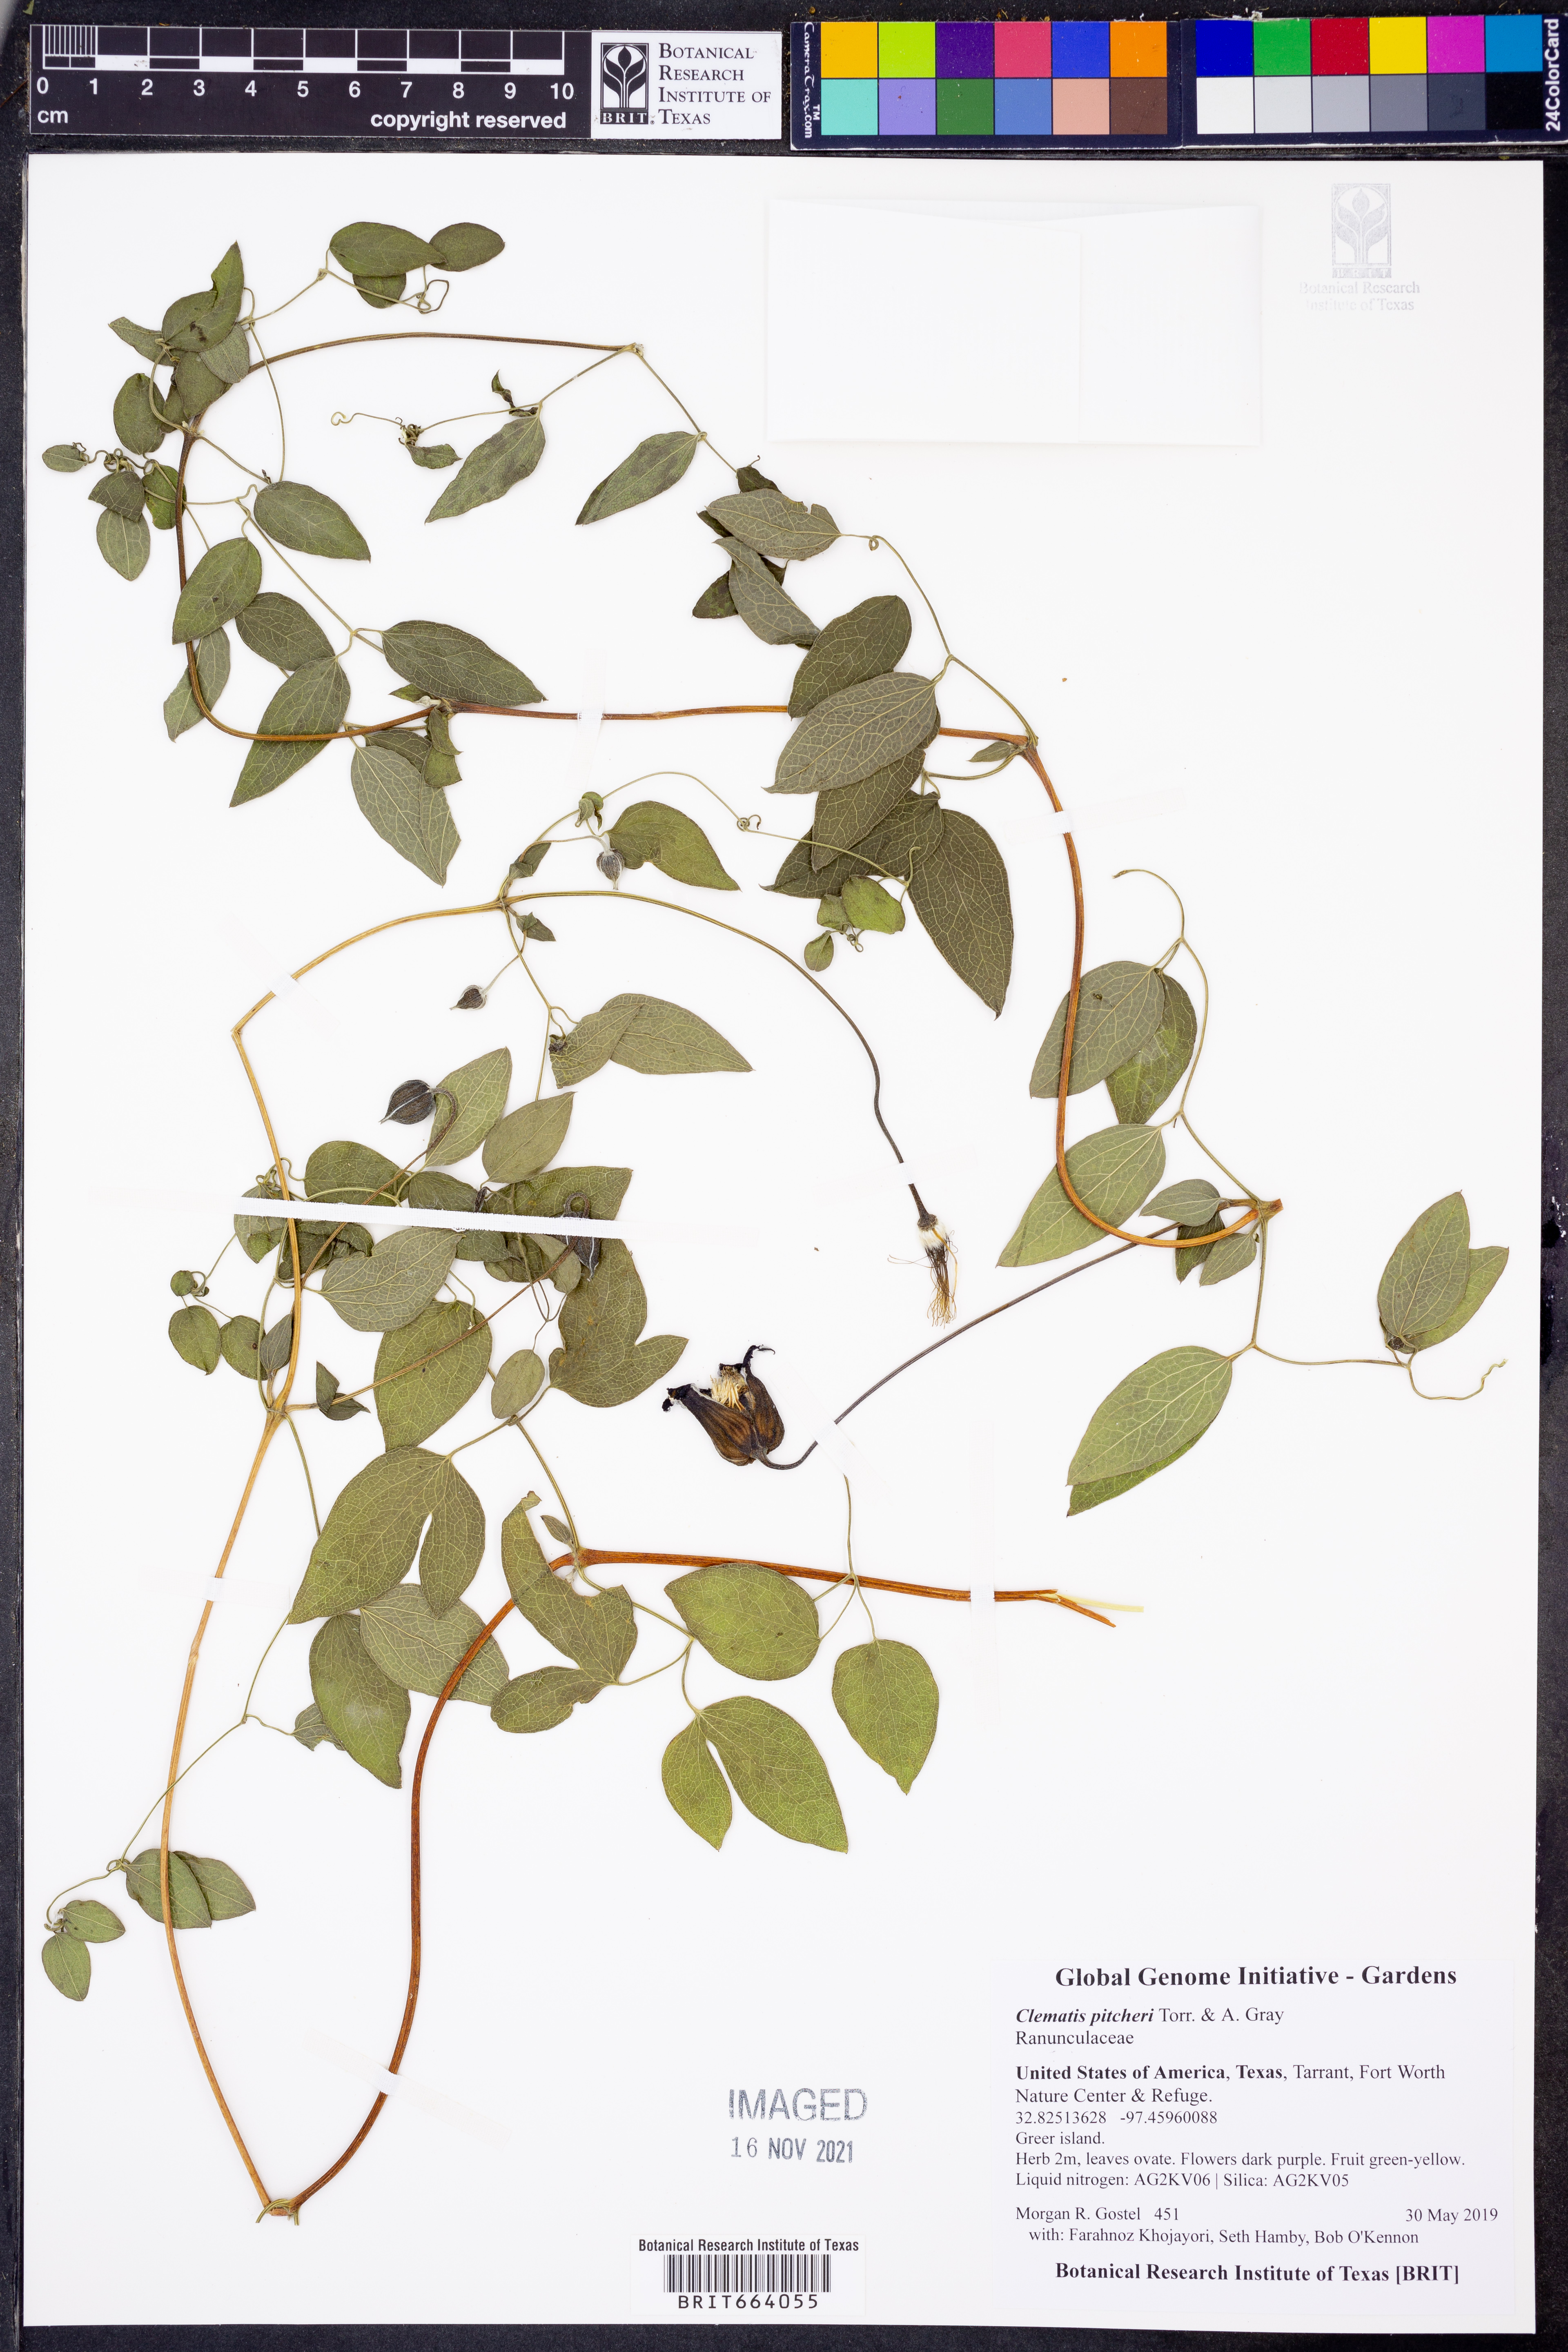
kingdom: Plantae
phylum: Tracheophyta
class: Magnoliopsida
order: Ranunculales
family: Ranunculaceae
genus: Clematis
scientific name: Clematis pitcheri
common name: Bellflower clematis
